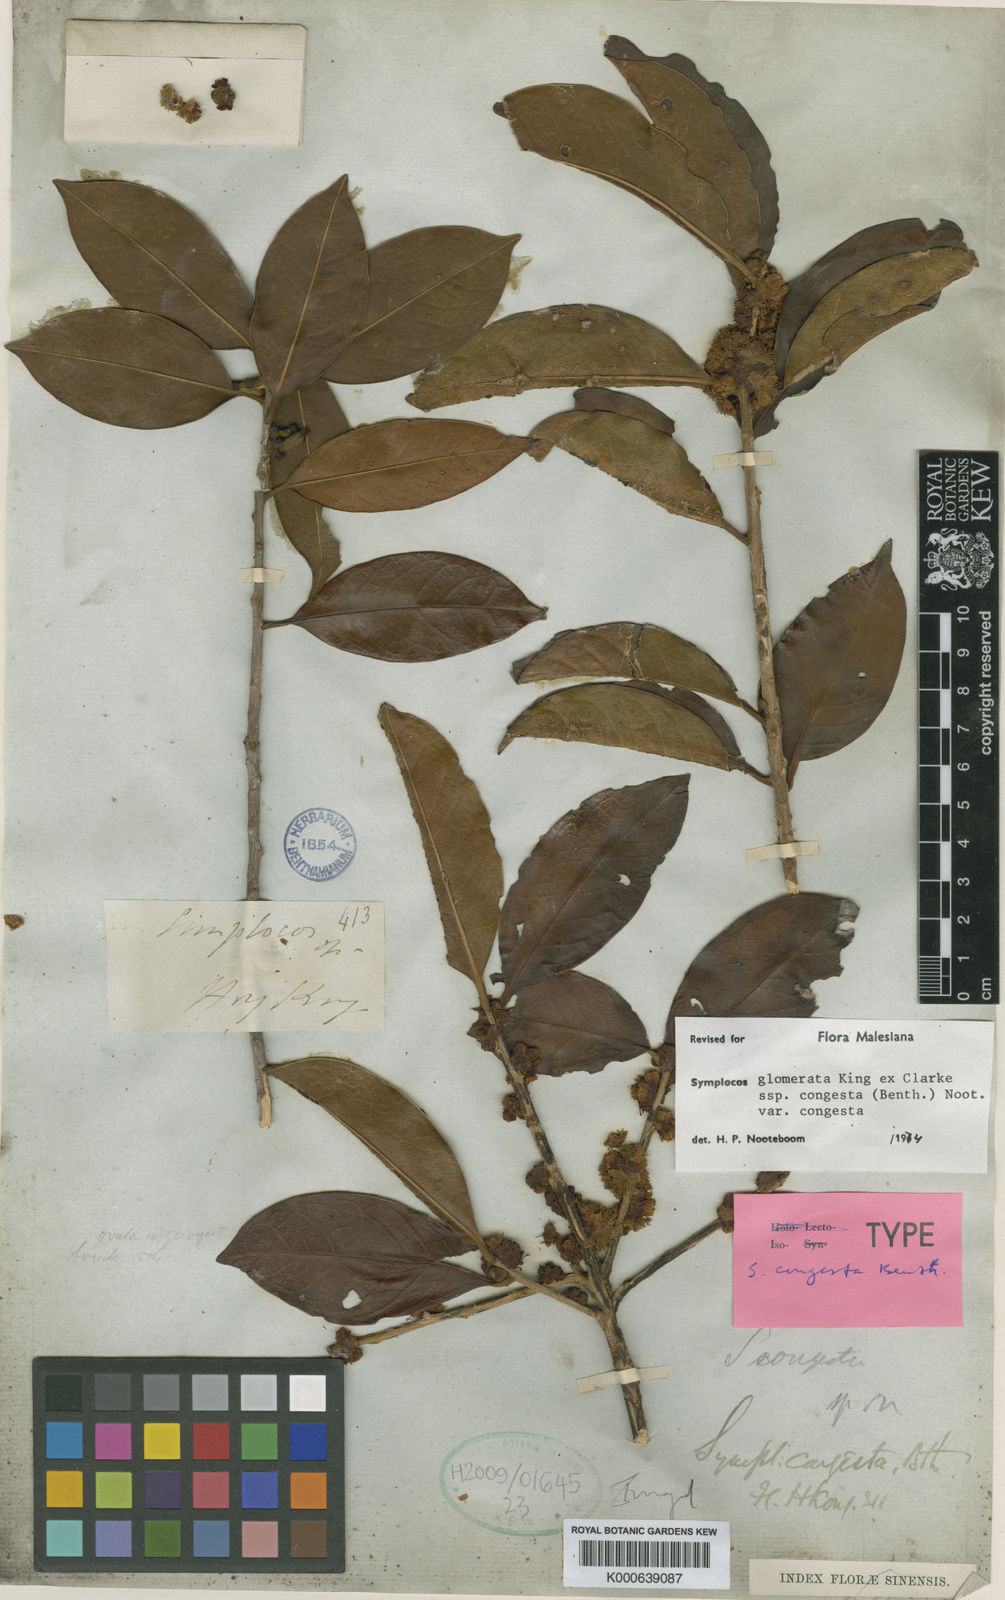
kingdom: Plantae
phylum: Tracheophyta
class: Magnoliopsida
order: Ericales
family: Symplocaceae
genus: Symplocos
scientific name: Symplocos glauca
